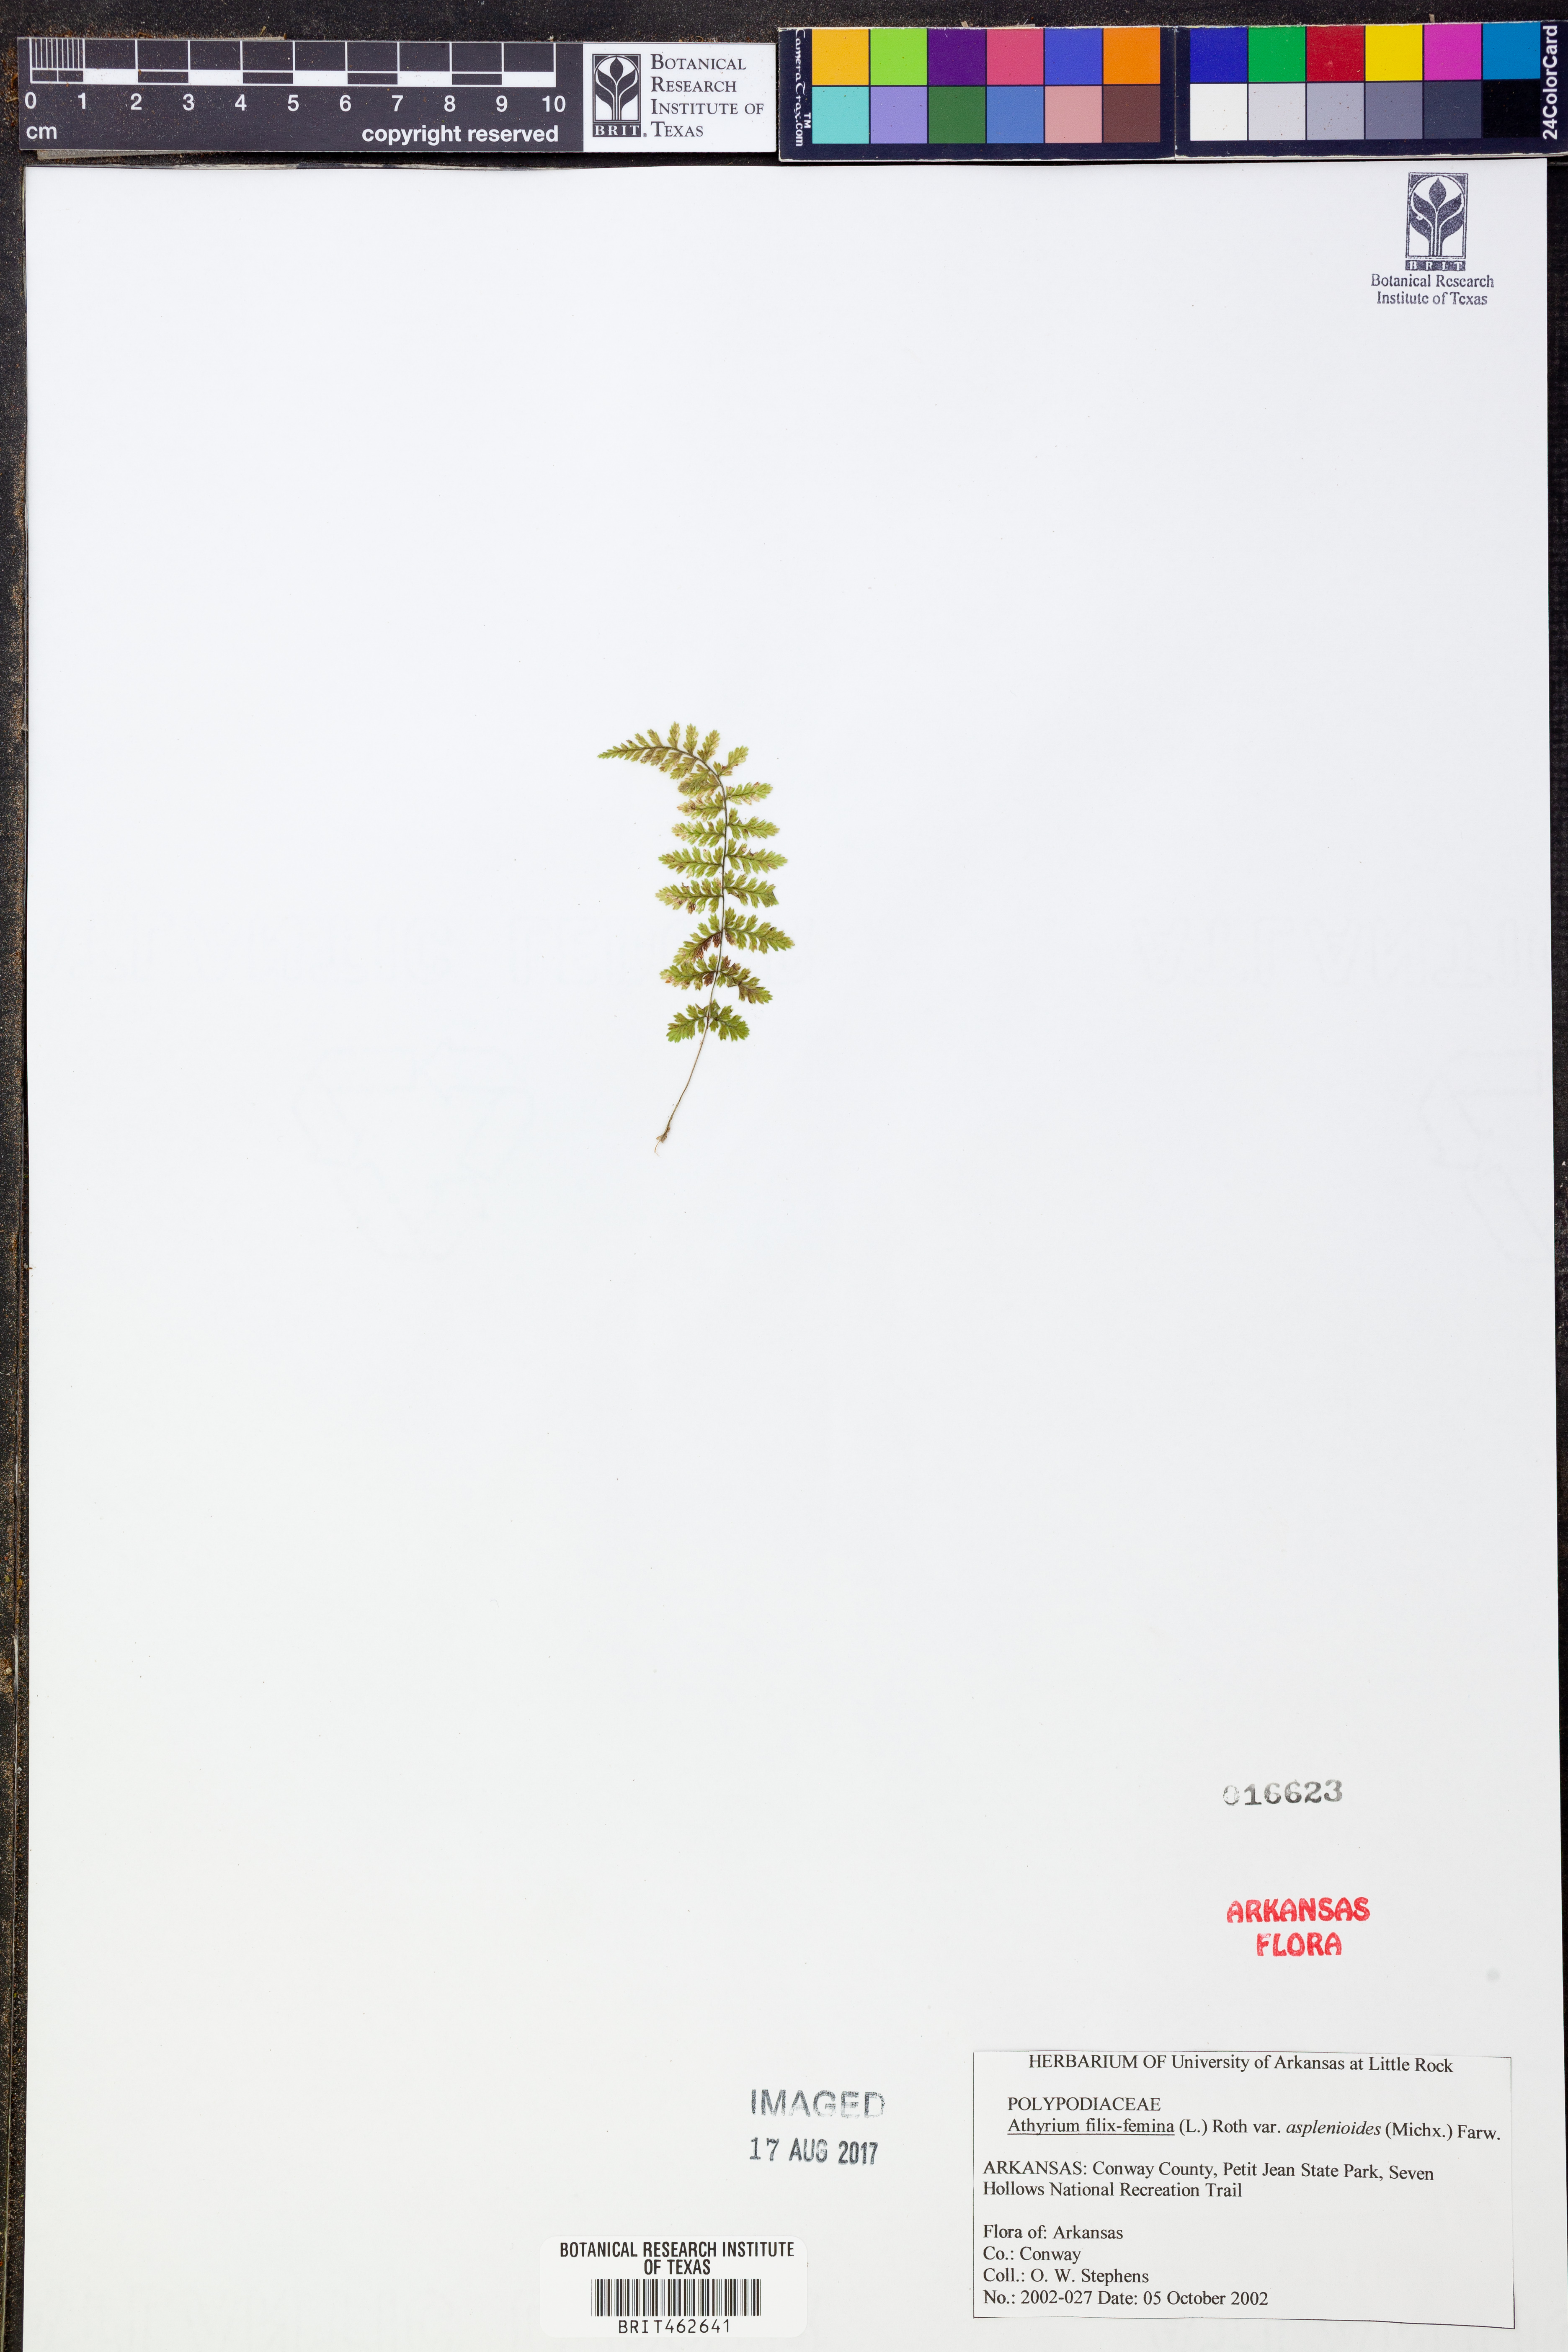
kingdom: Plantae
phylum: Tracheophyta
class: Polypodiopsida
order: Polypodiales
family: Athyriaceae
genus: Athyrium
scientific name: Athyrium asplenioides
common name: Southern lady fern
